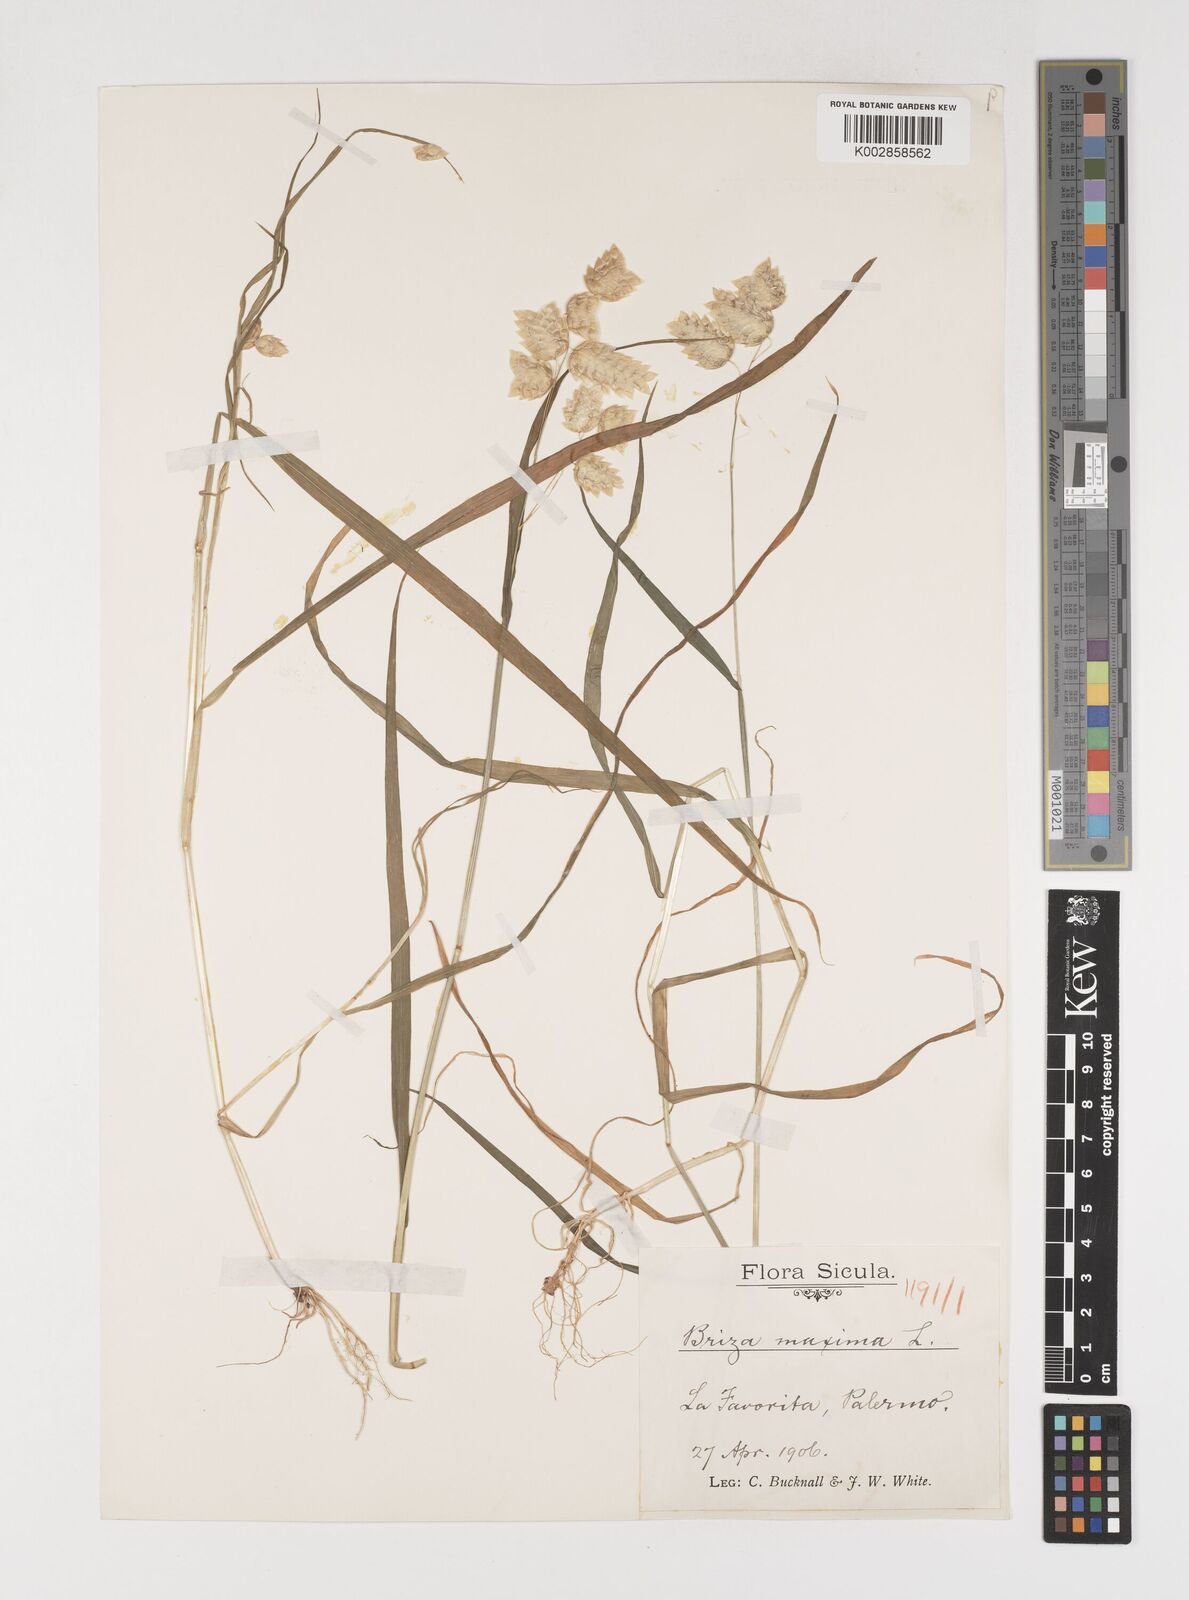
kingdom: Plantae
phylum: Tracheophyta
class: Liliopsida
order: Poales
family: Poaceae
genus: Briza
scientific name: Briza maxima
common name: Big quakinggrass
